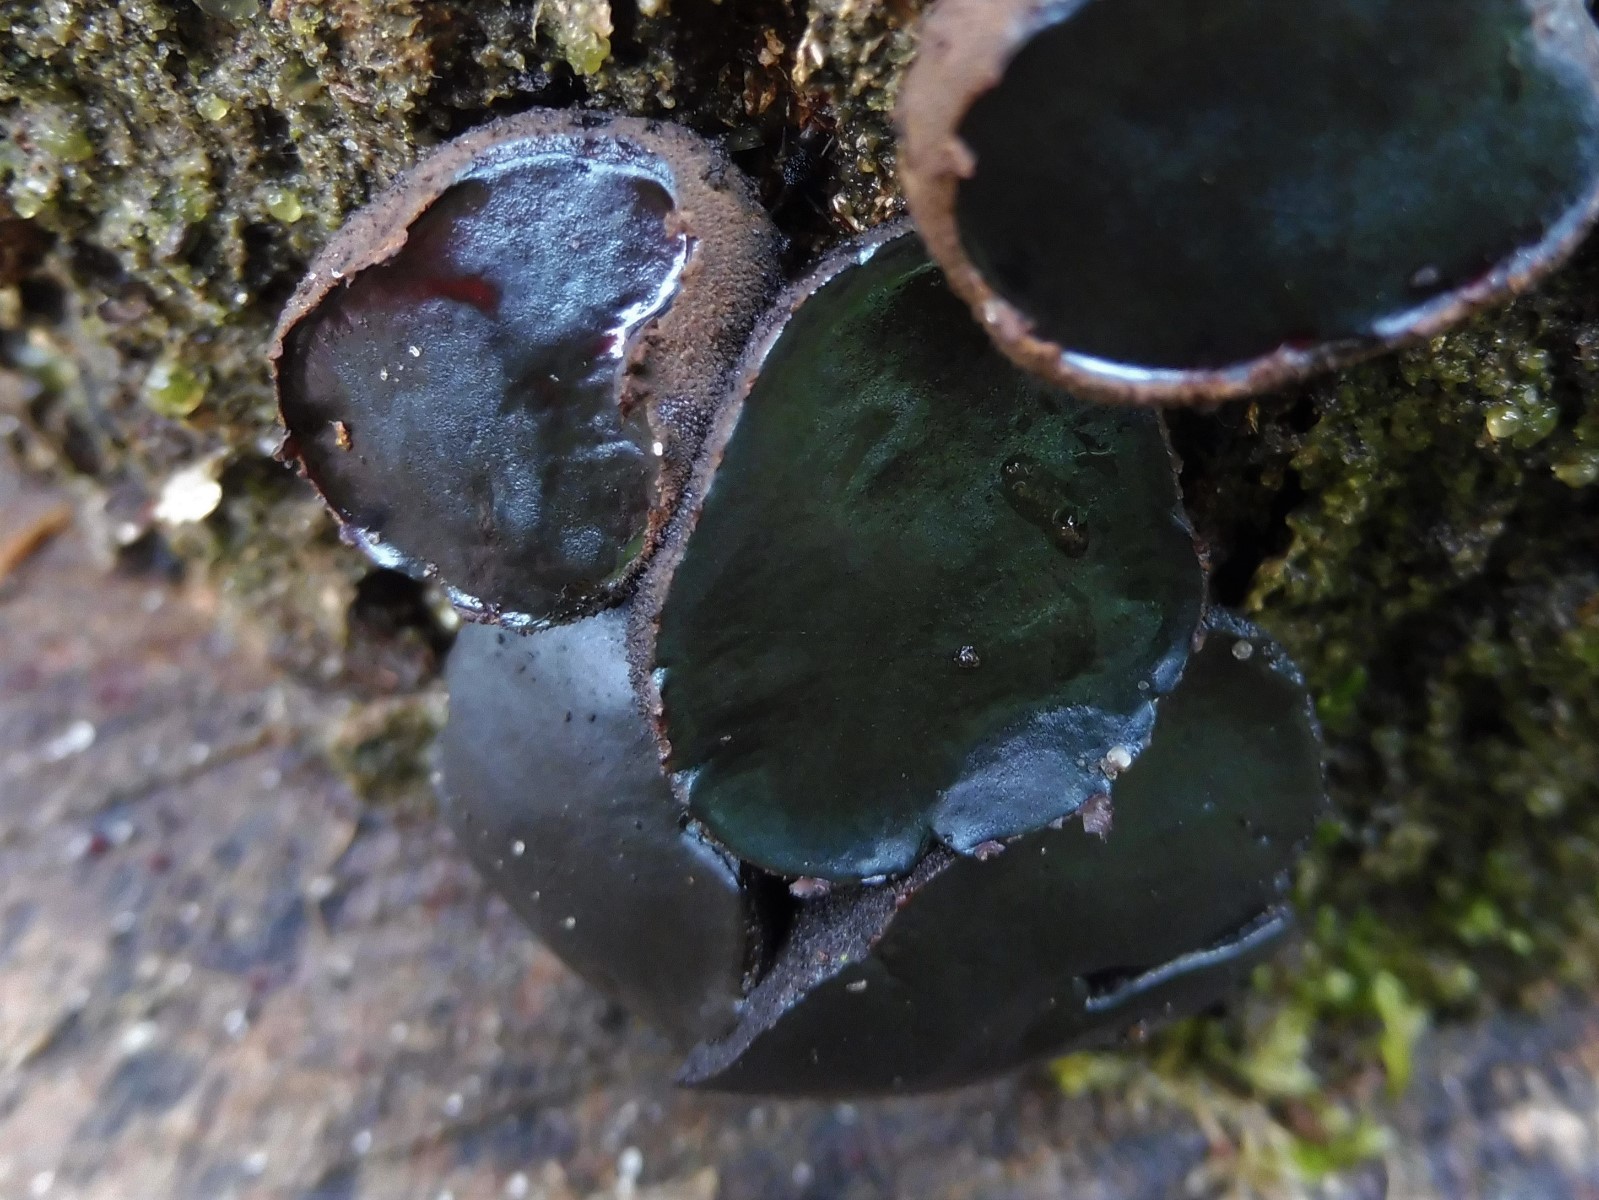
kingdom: Fungi
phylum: Ascomycota
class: Leotiomycetes
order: Phacidiales
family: Phacidiaceae
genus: Bulgaria
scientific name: Bulgaria inquinans
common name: afsmittende topsvamp
